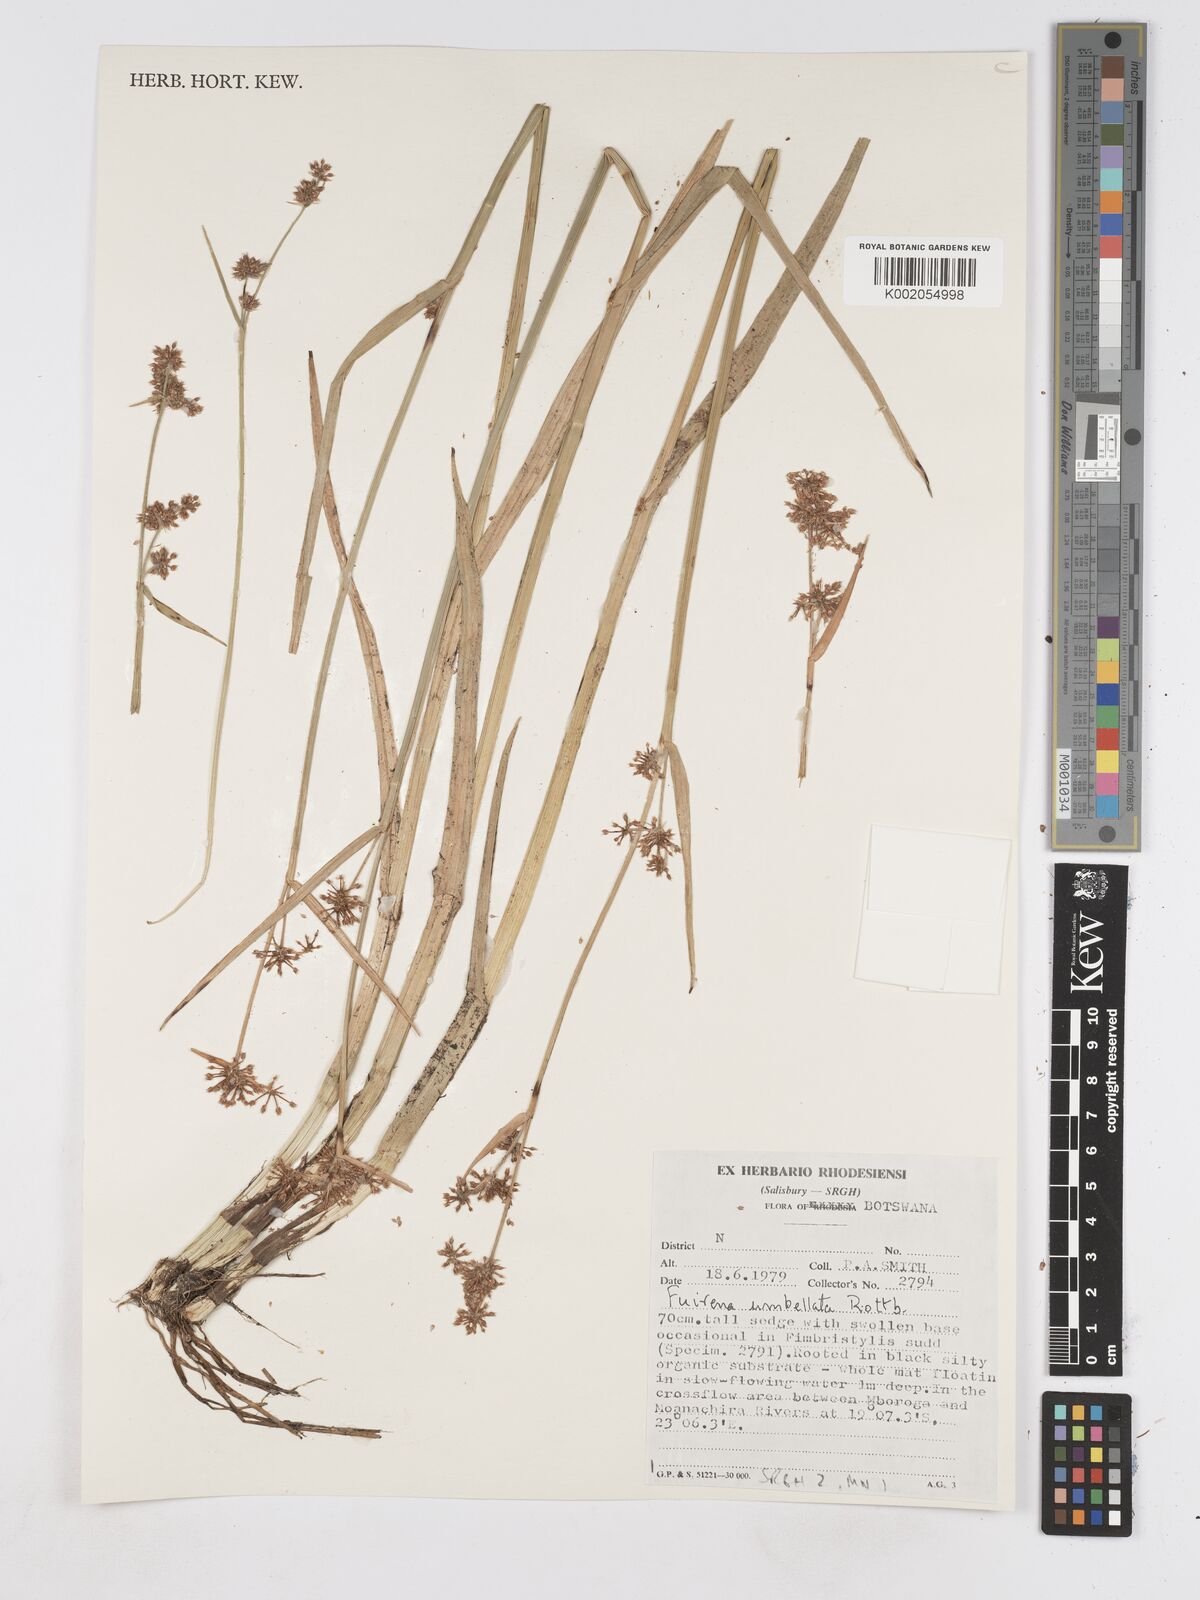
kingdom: Plantae
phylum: Tracheophyta
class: Liliopsida
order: Poales
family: Cyperaceae
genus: Fuirena
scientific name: Fuirena umbellata
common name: Yefen
